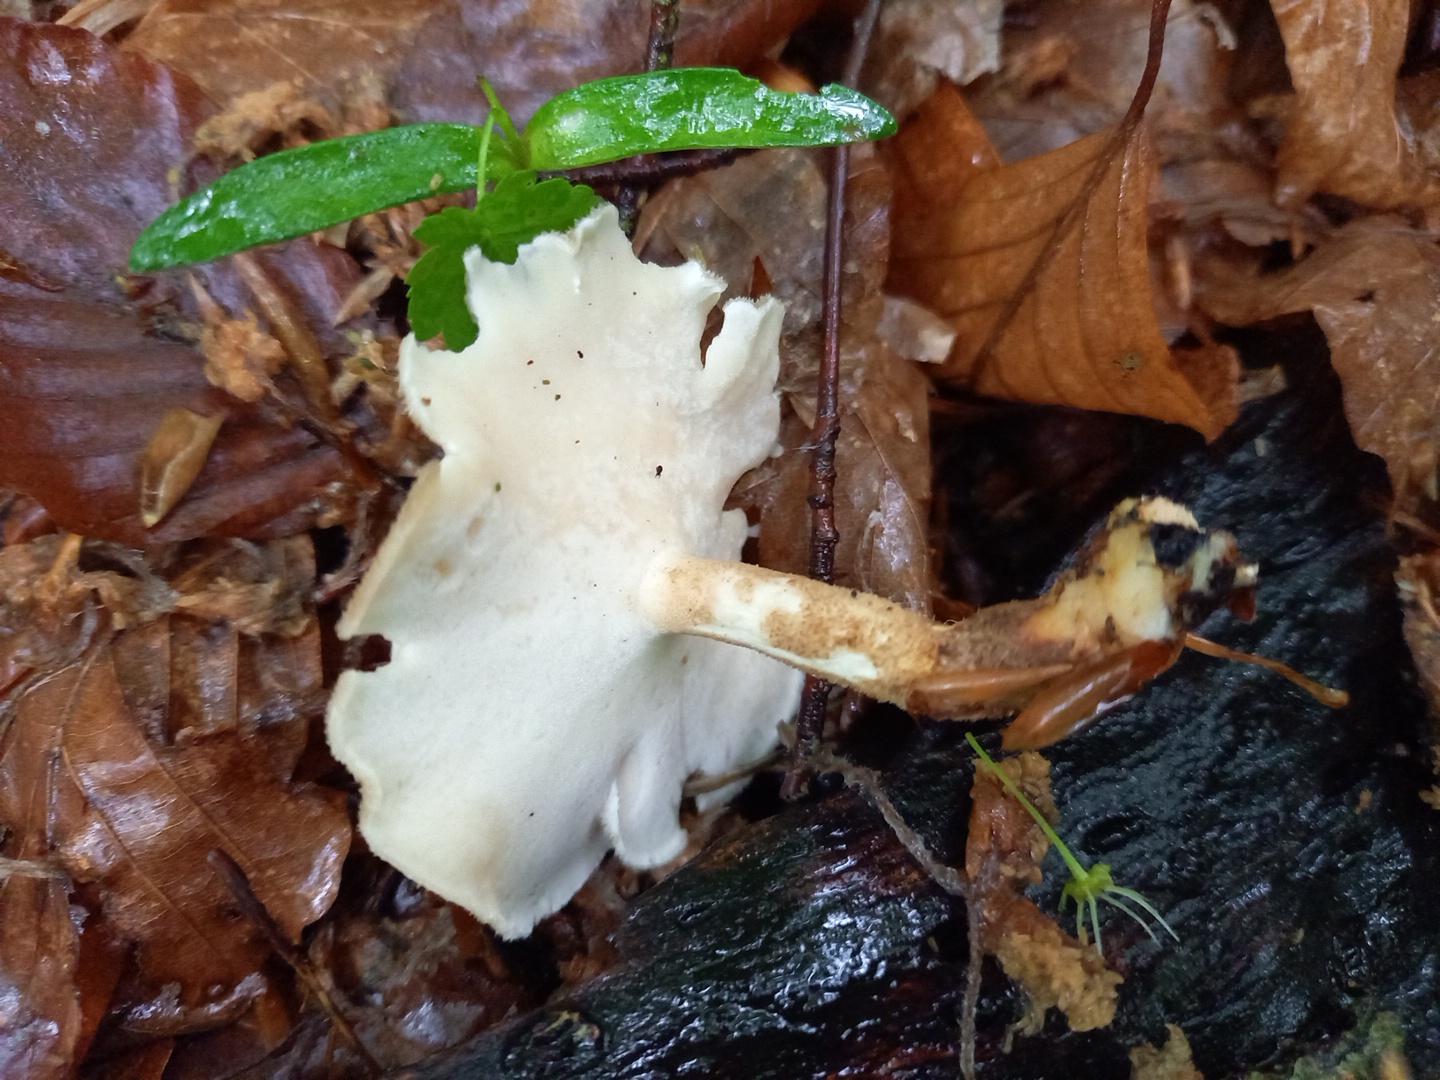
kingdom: Fungi
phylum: Basidiomycota
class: Agaricomycetes
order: Polyporales
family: Polyporaceae
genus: Lentinus
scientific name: Lentinus substrictus
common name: forårs-stilkporesvamp
